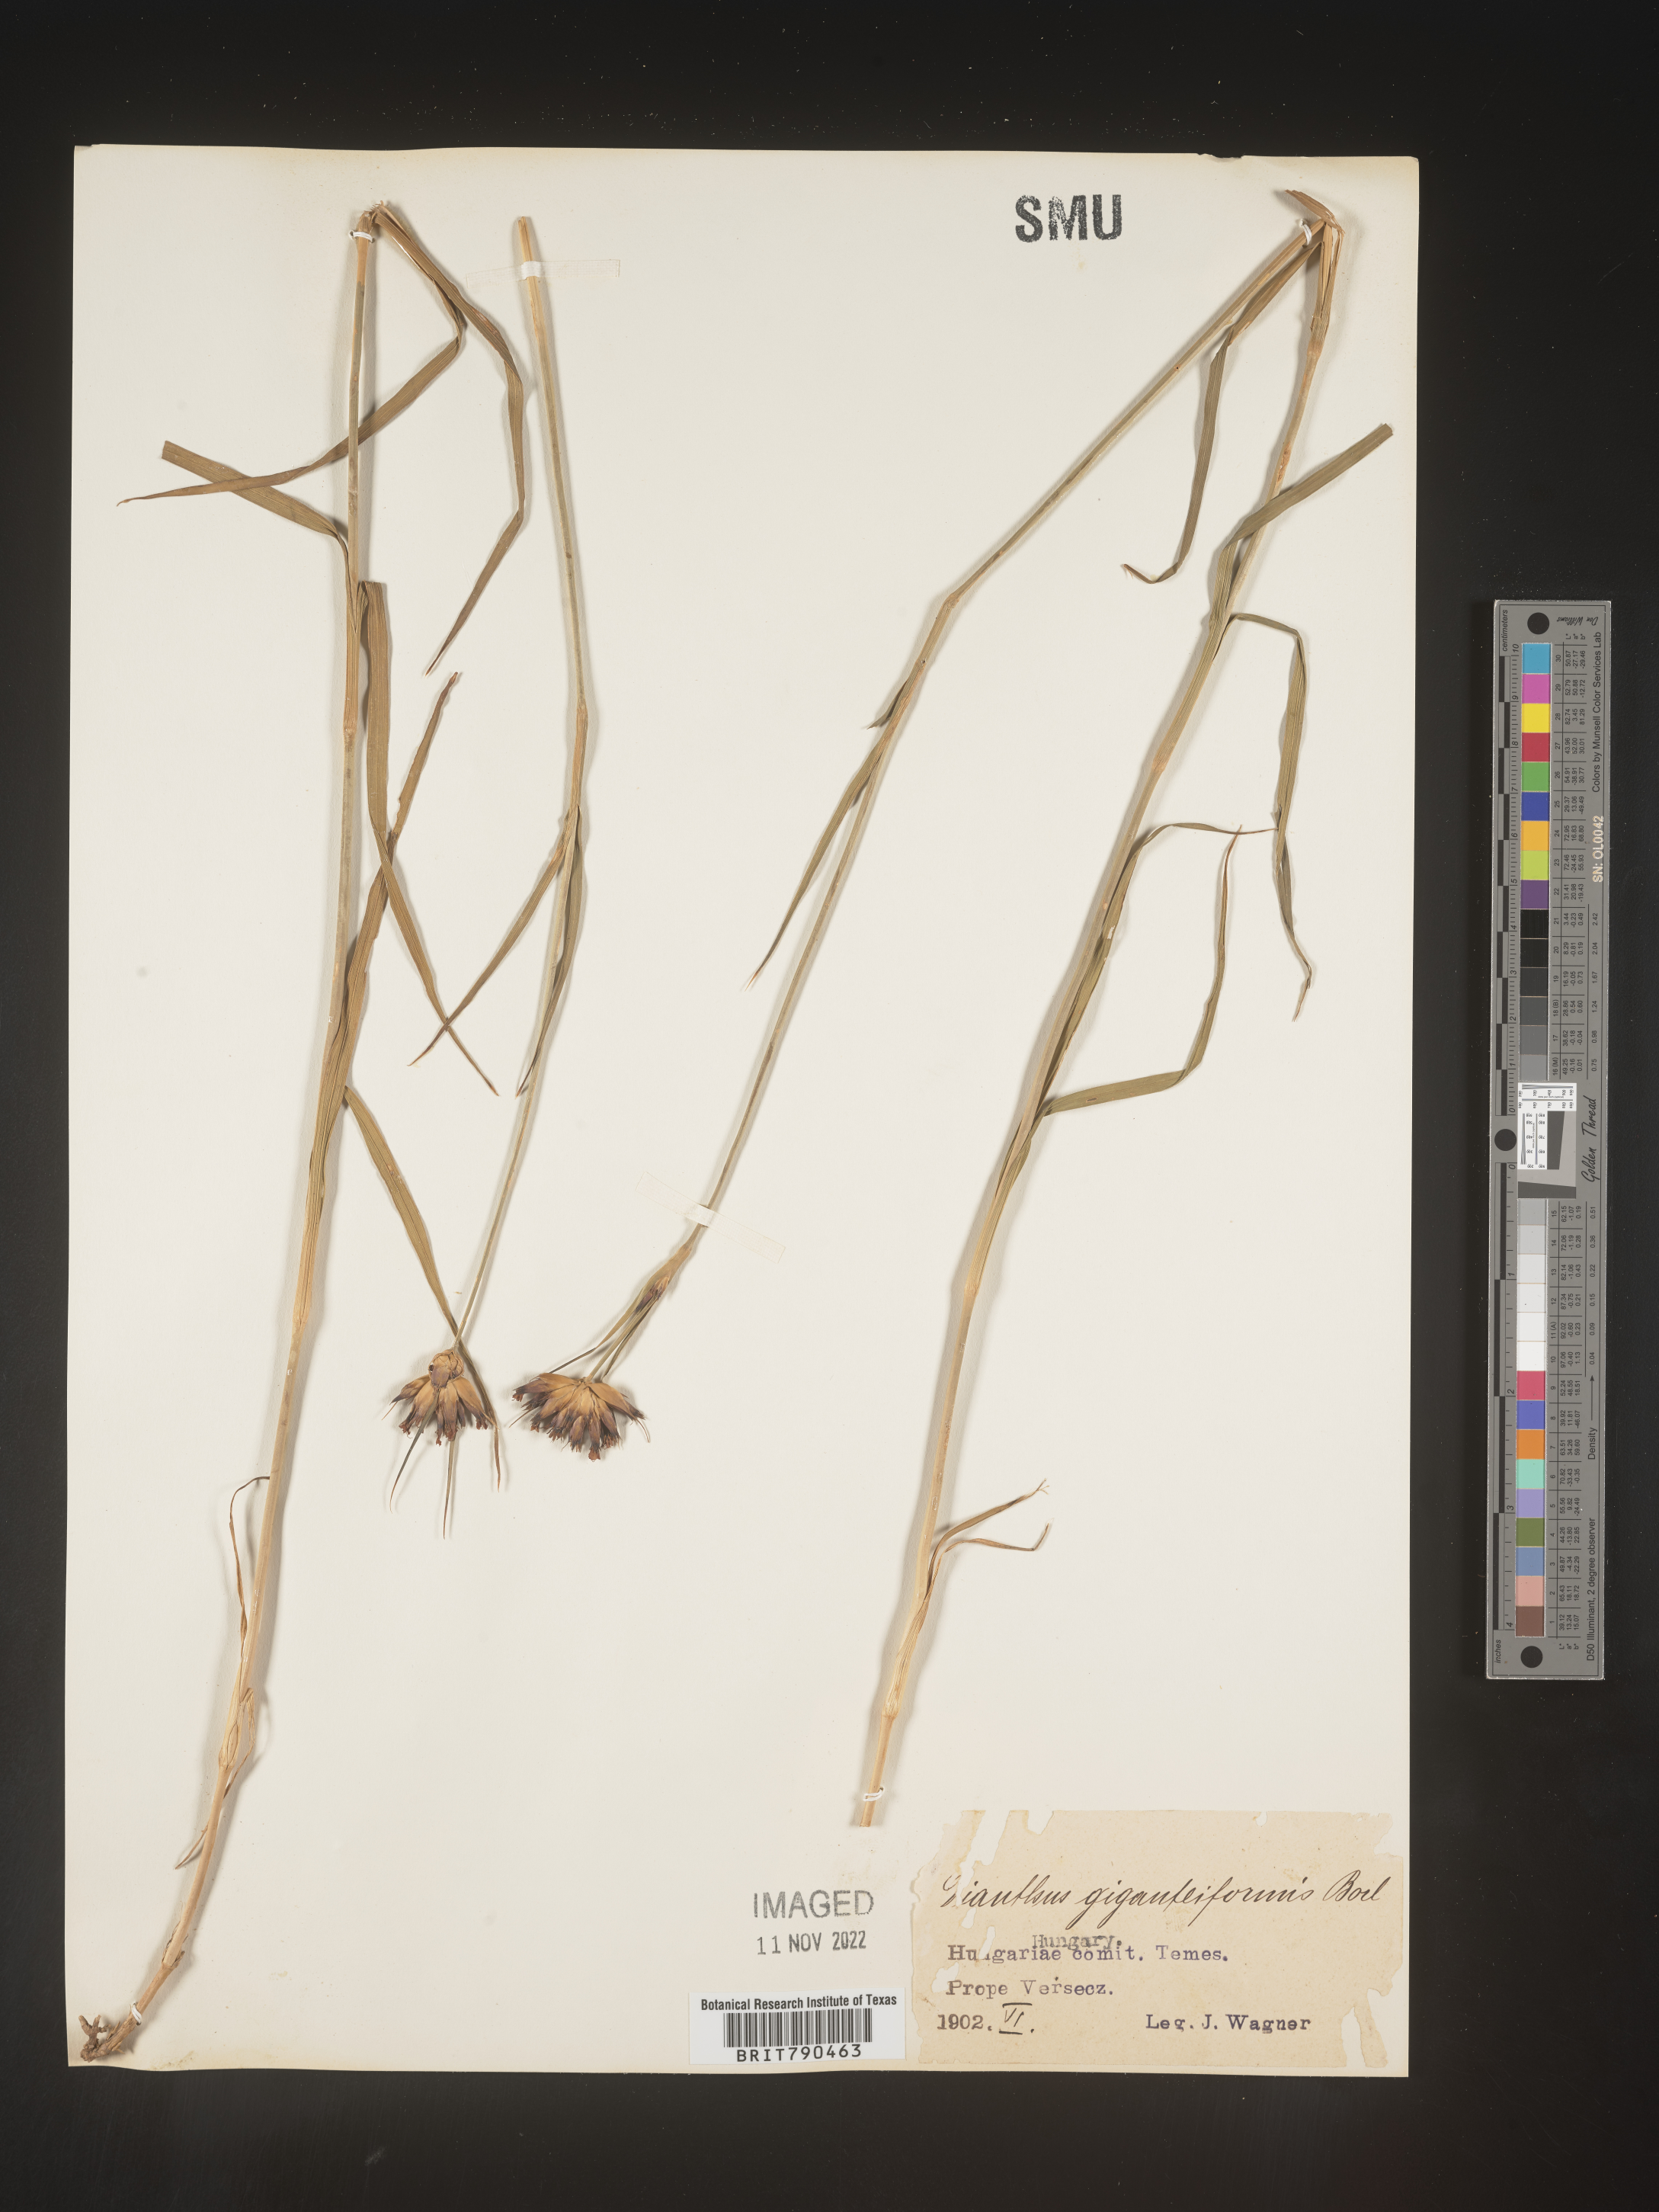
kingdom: Plantae
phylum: Tracheophyta
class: Magnoliopsida
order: Caryophyllales
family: Caryophyllaceae
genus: Dianthus
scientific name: Dianthus
